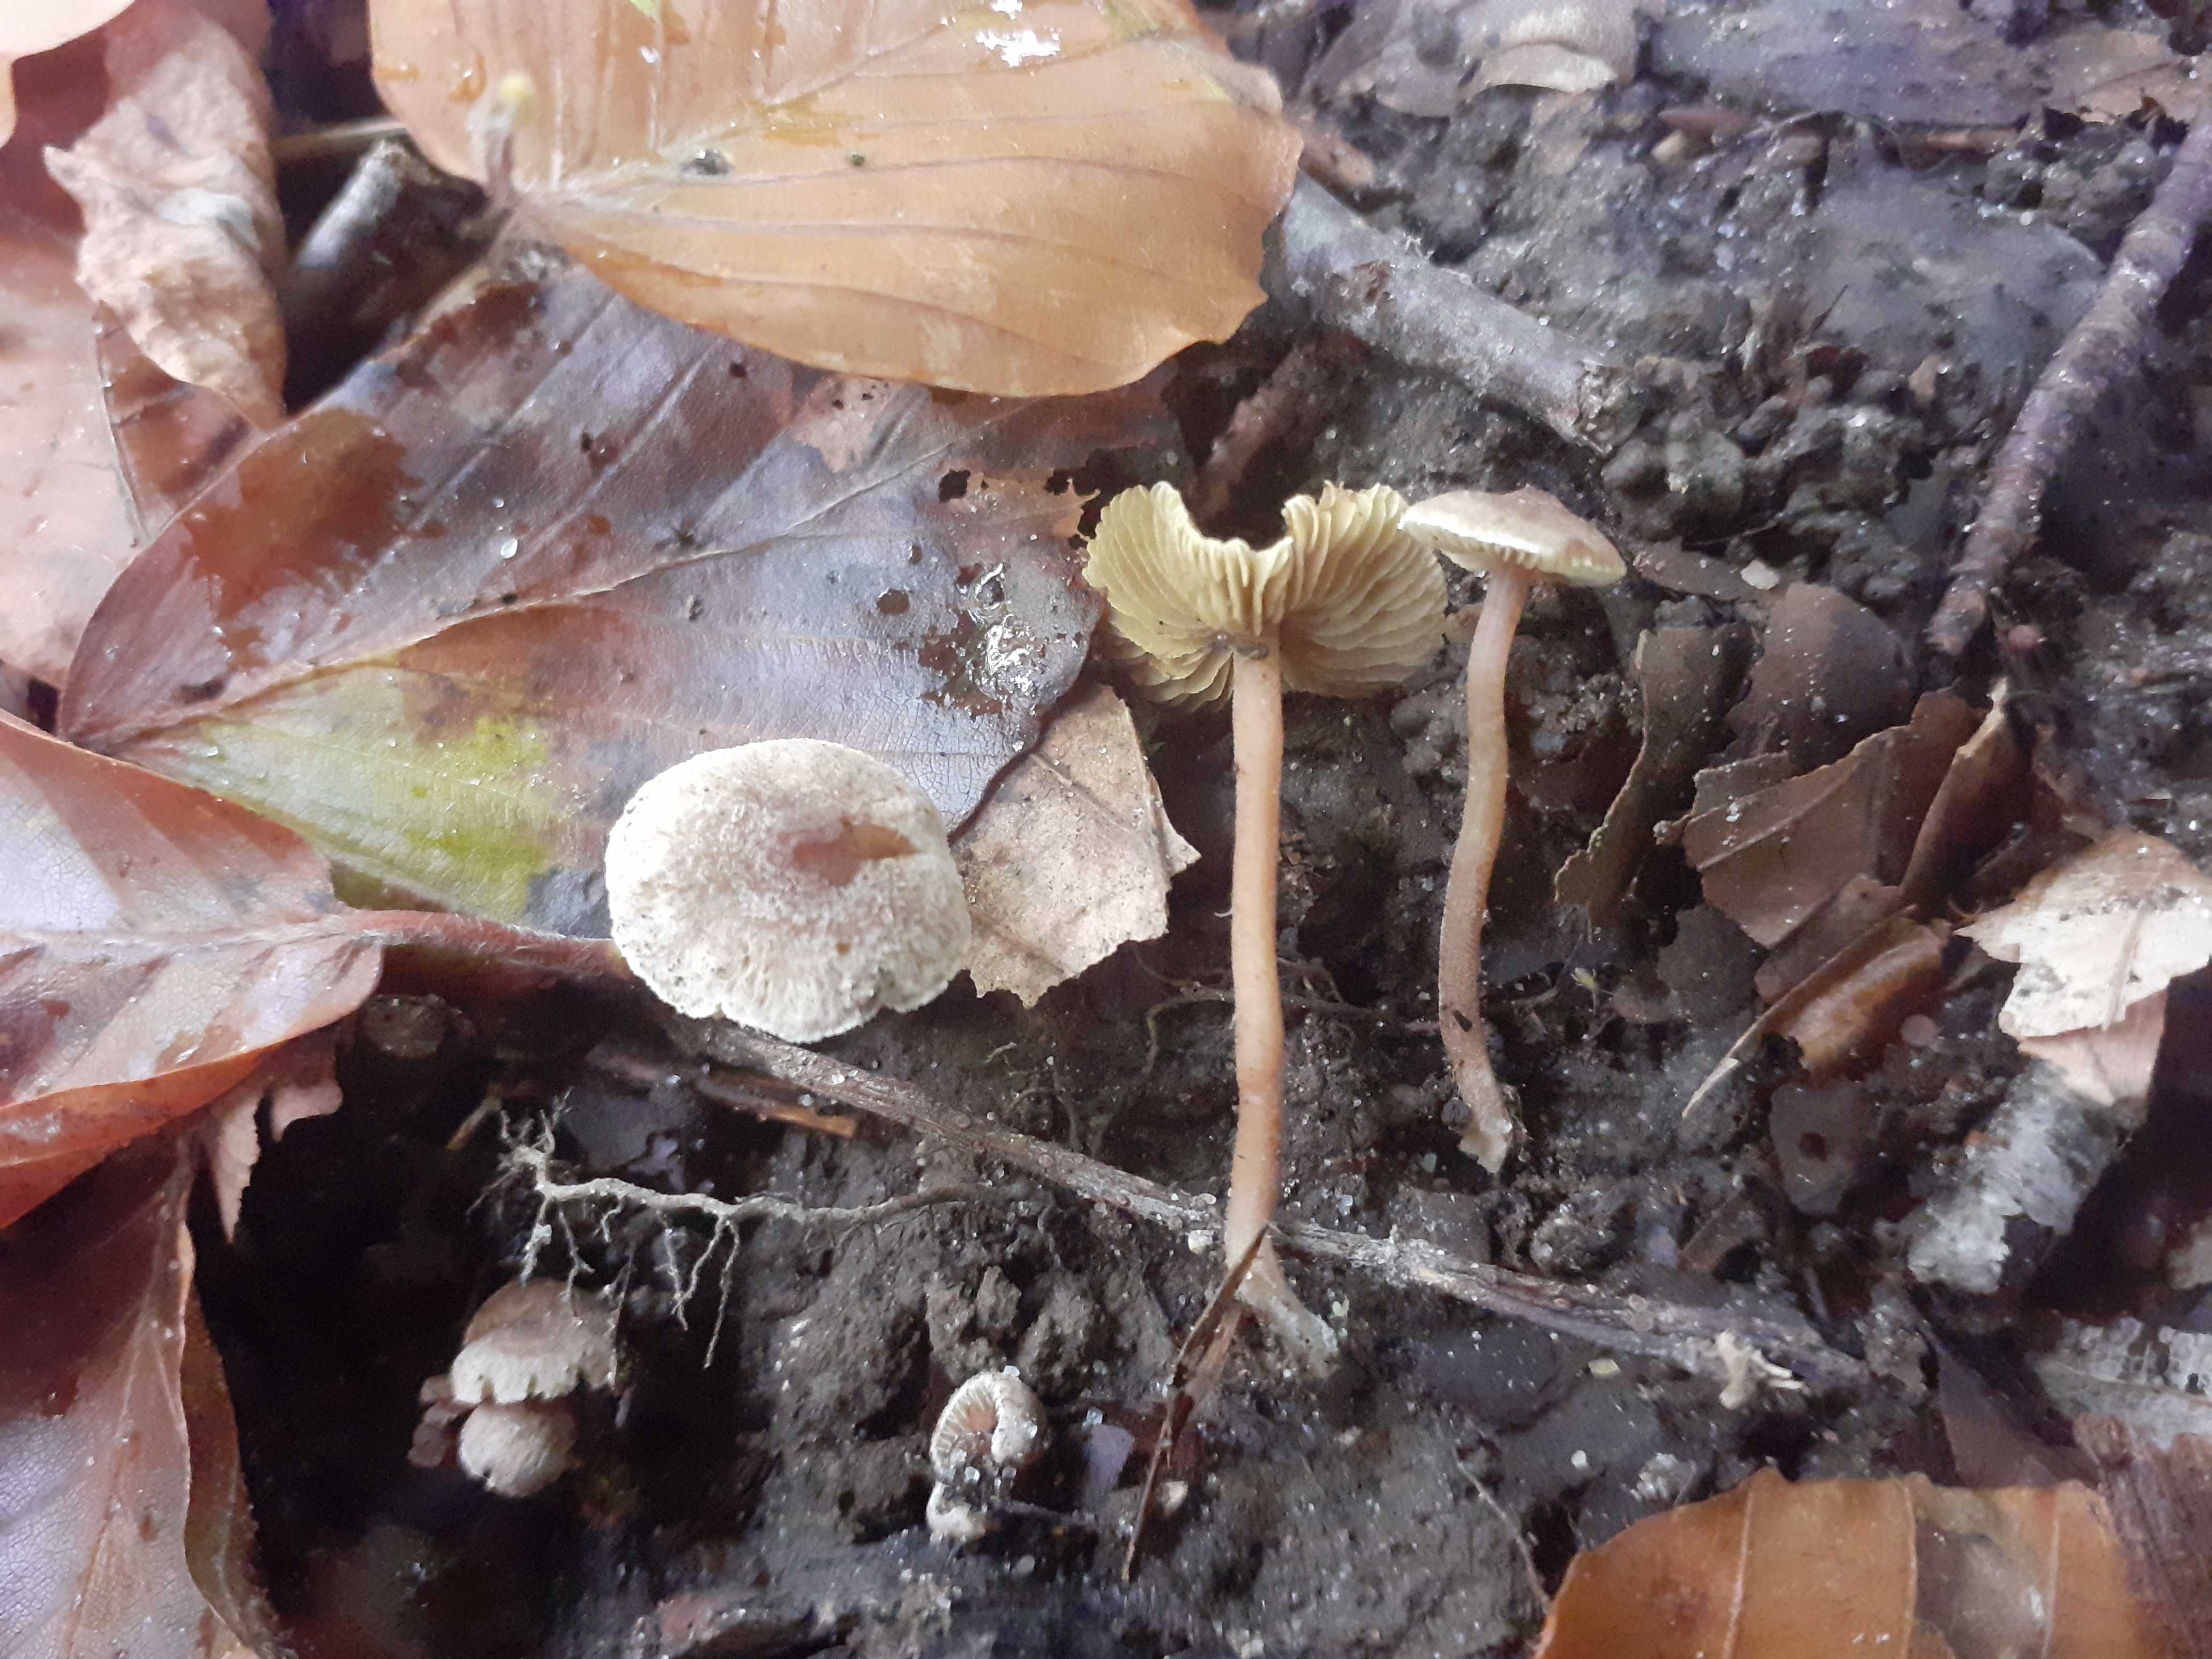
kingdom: Fungi
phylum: Basidiomycota
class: Agaricomycetes
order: Agaricales
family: Inocybaceae
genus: Inocybe
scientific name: Inocybe petiginosa
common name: liden trævlhat
